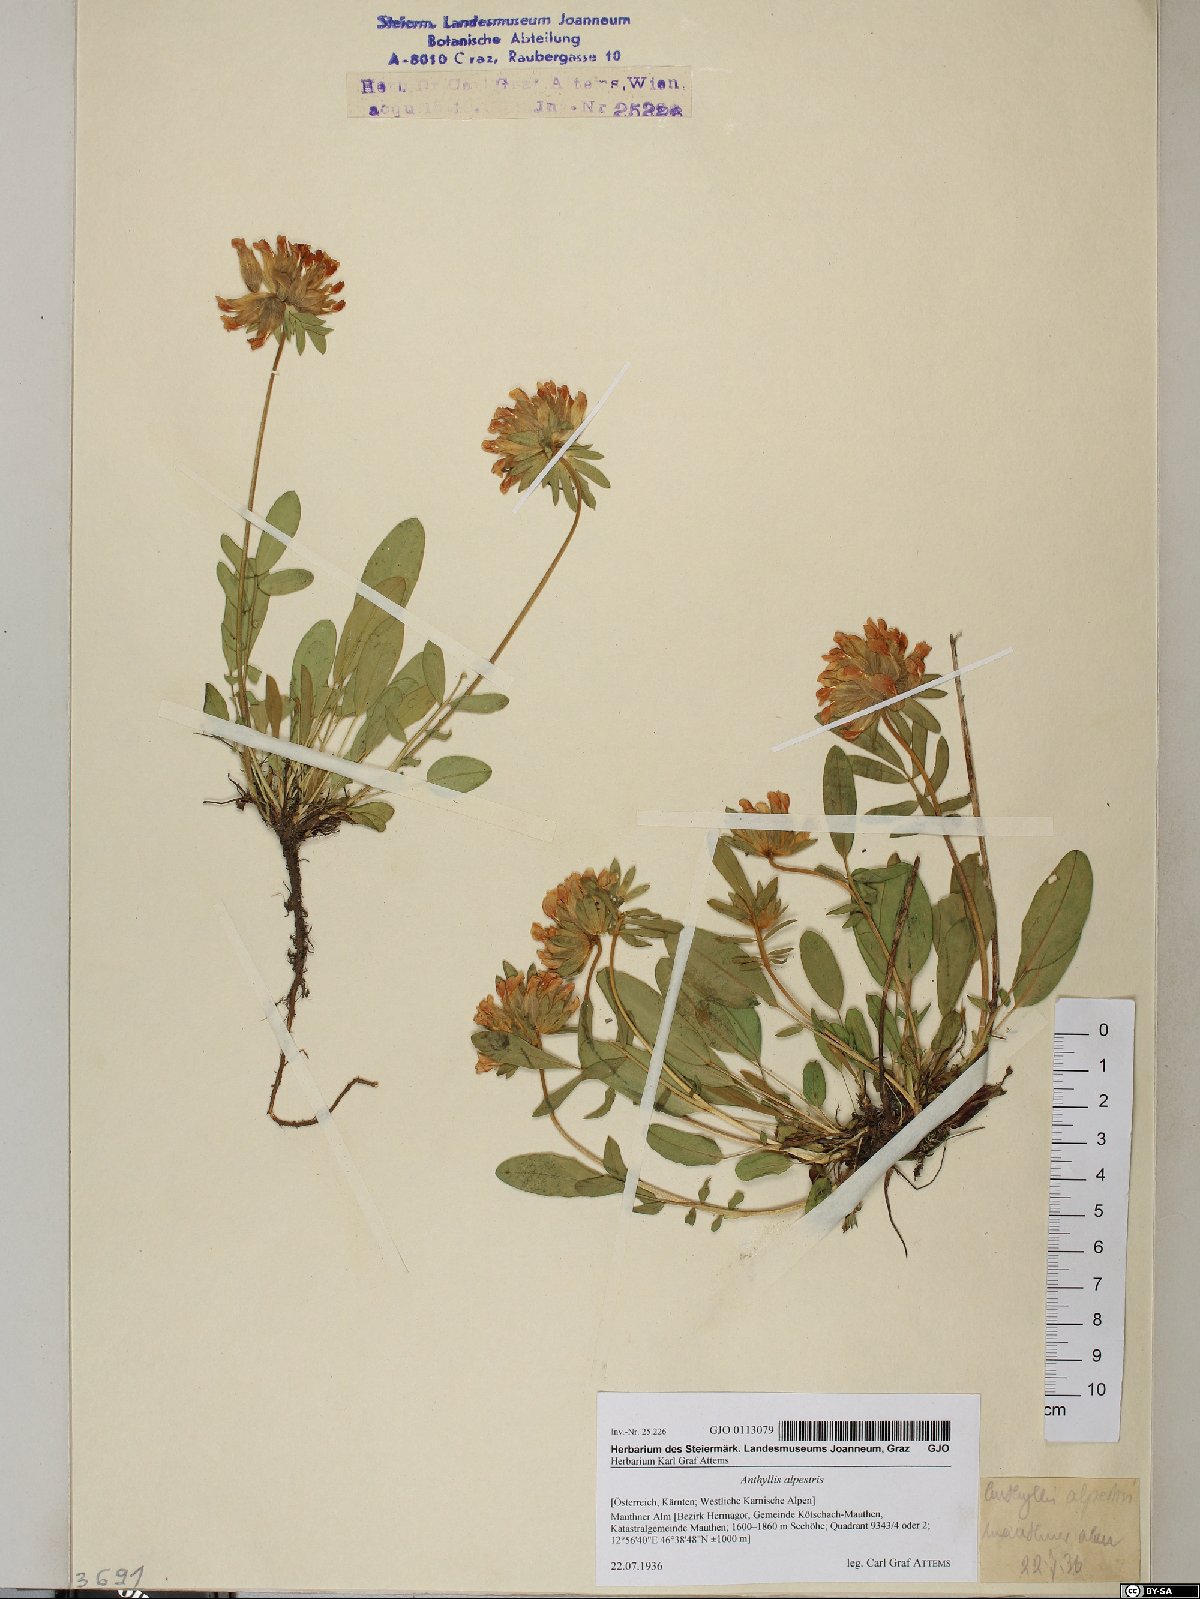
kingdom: Plantae
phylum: Tracheophyta
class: Magnoliopsida
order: Fabales
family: Fabaceae
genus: Anthyllis
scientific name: Anthyllis vulneraria
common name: Kidney vetch
